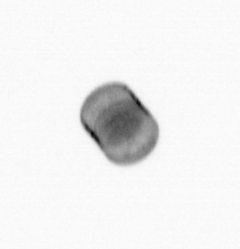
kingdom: Chromista
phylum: Ochrophyta
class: Bacillariophyceae
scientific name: Bacillariophyceae
